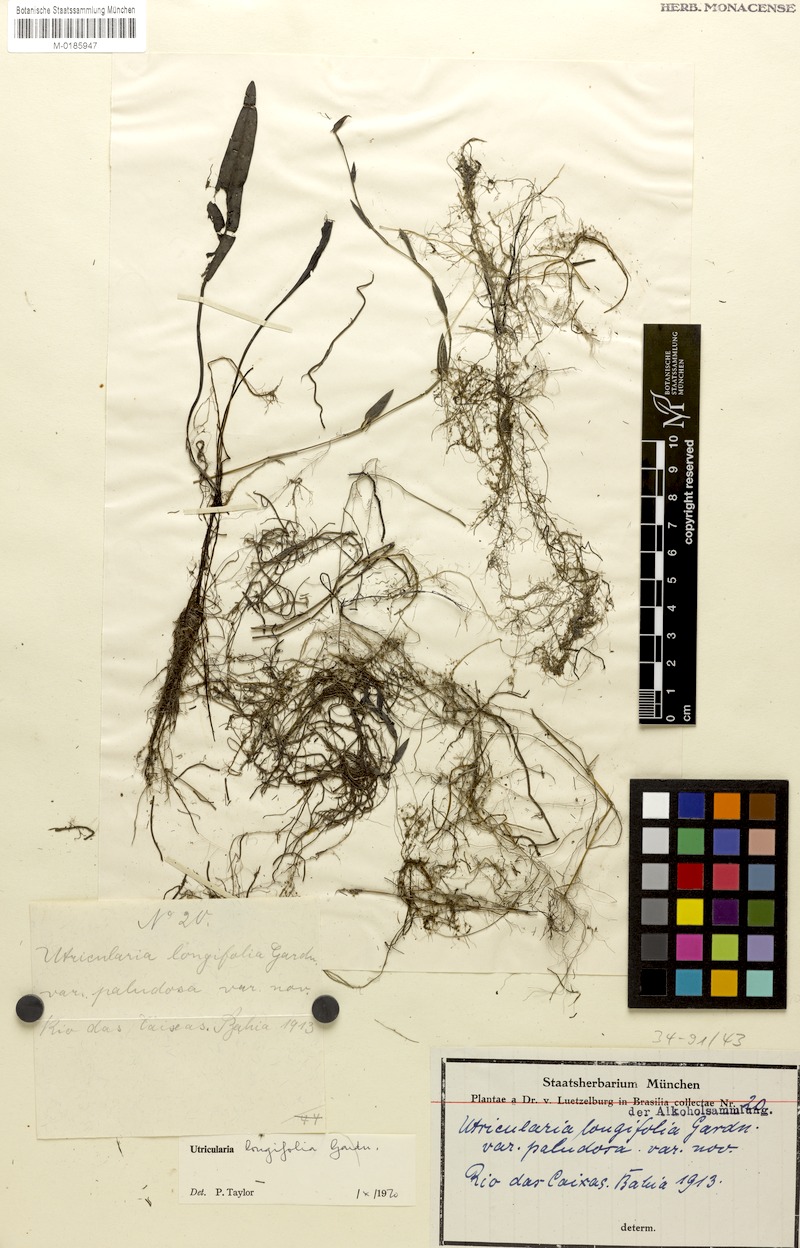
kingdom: Plantae
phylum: Tracheophyta
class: Magnoliopsida
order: Lamiales
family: Lentibulariaceae
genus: Utricularia
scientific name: Utricularia longifolia
